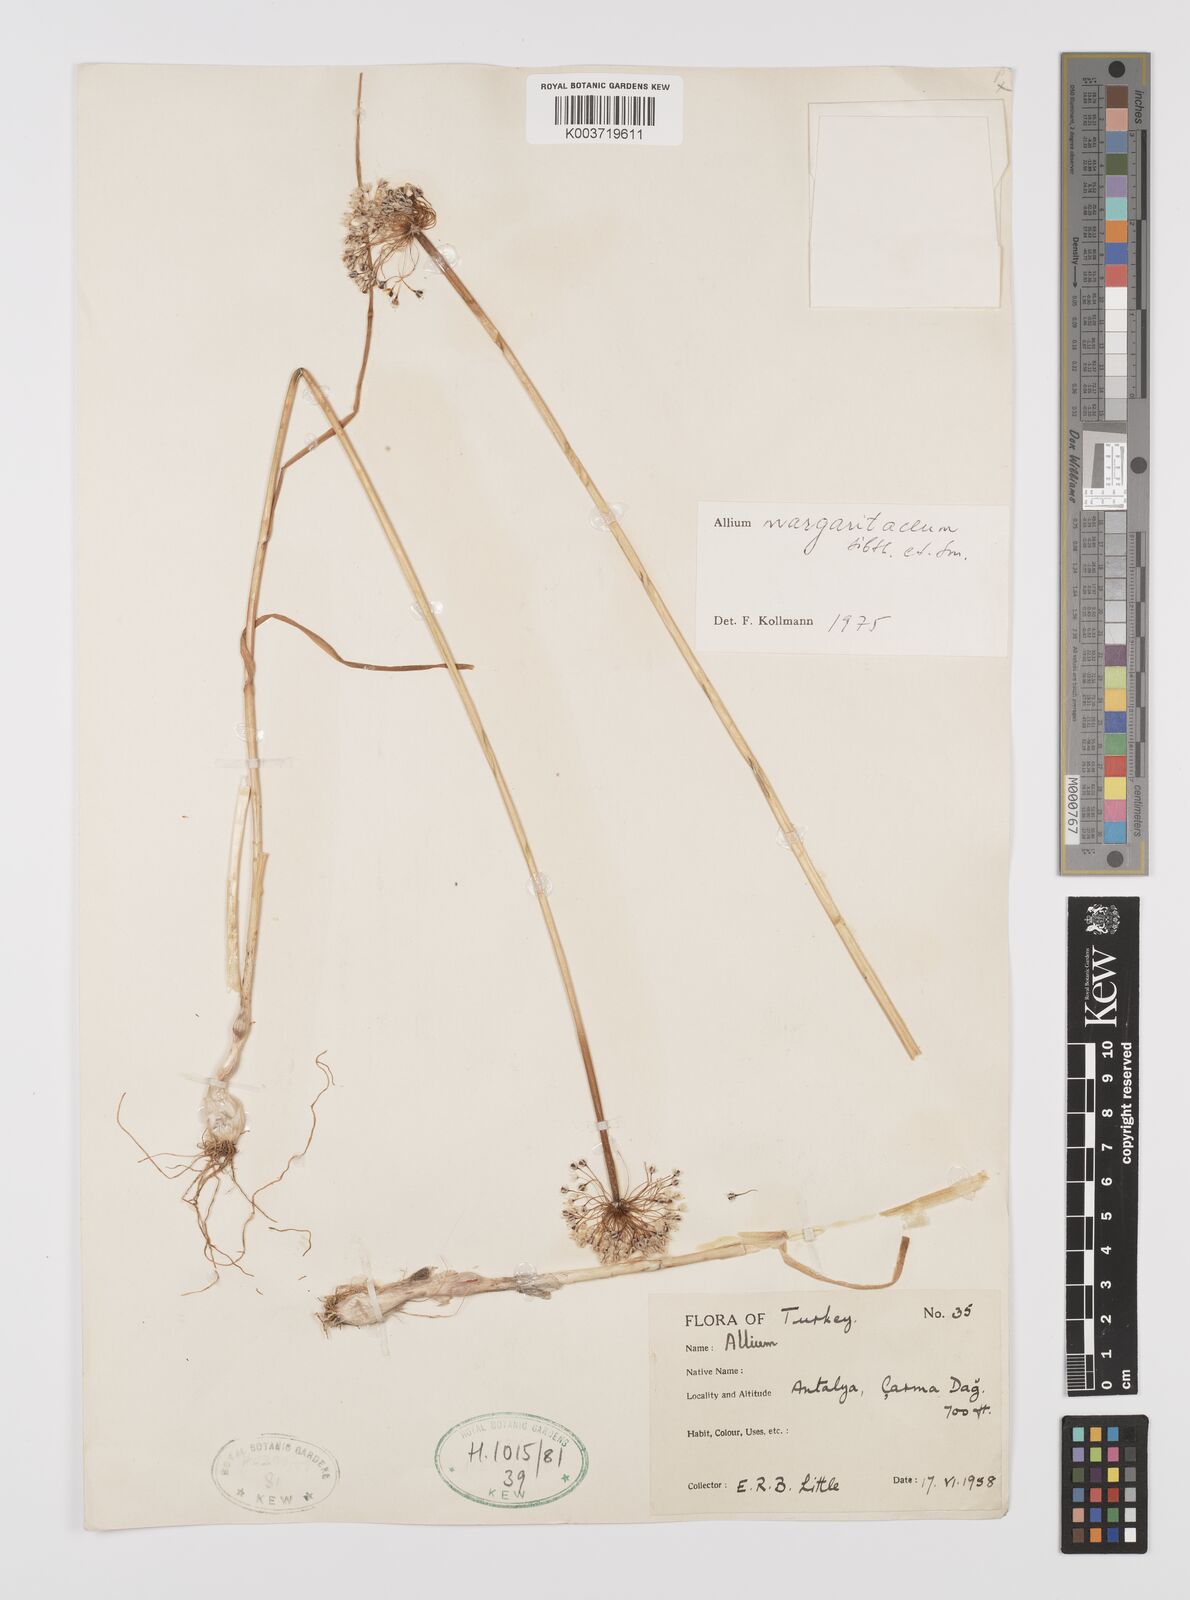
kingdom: Plantae
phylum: Tracheophyta
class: Liliopsida
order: Asparagales
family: Amaryllidaceae
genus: Allium
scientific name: Allium guttatum
